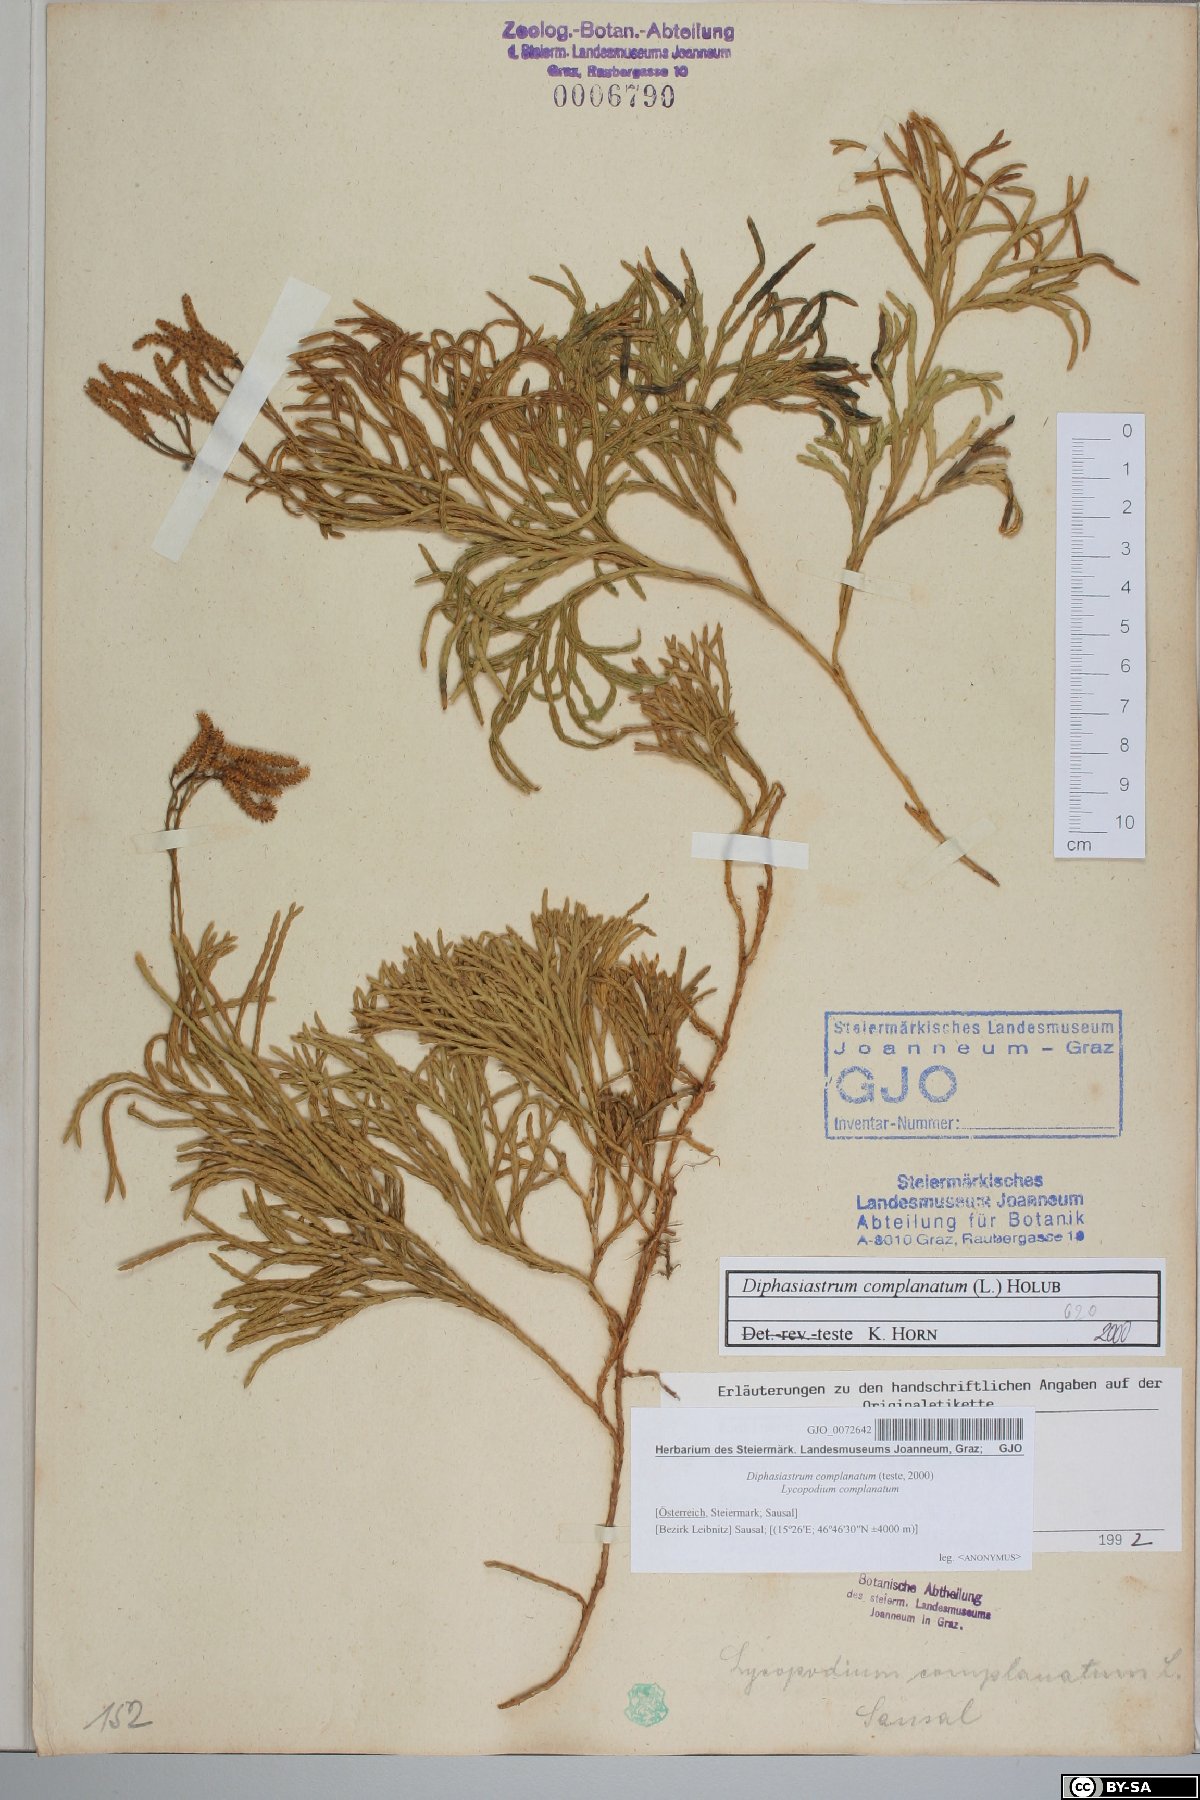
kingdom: Plantae
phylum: Tracheophyta
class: Lycopodiopsida
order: Lycopodiales
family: Lycopodiaceae
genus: Diphasiastrum
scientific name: Diphasiastrum complanatum
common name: Northern running-pine
